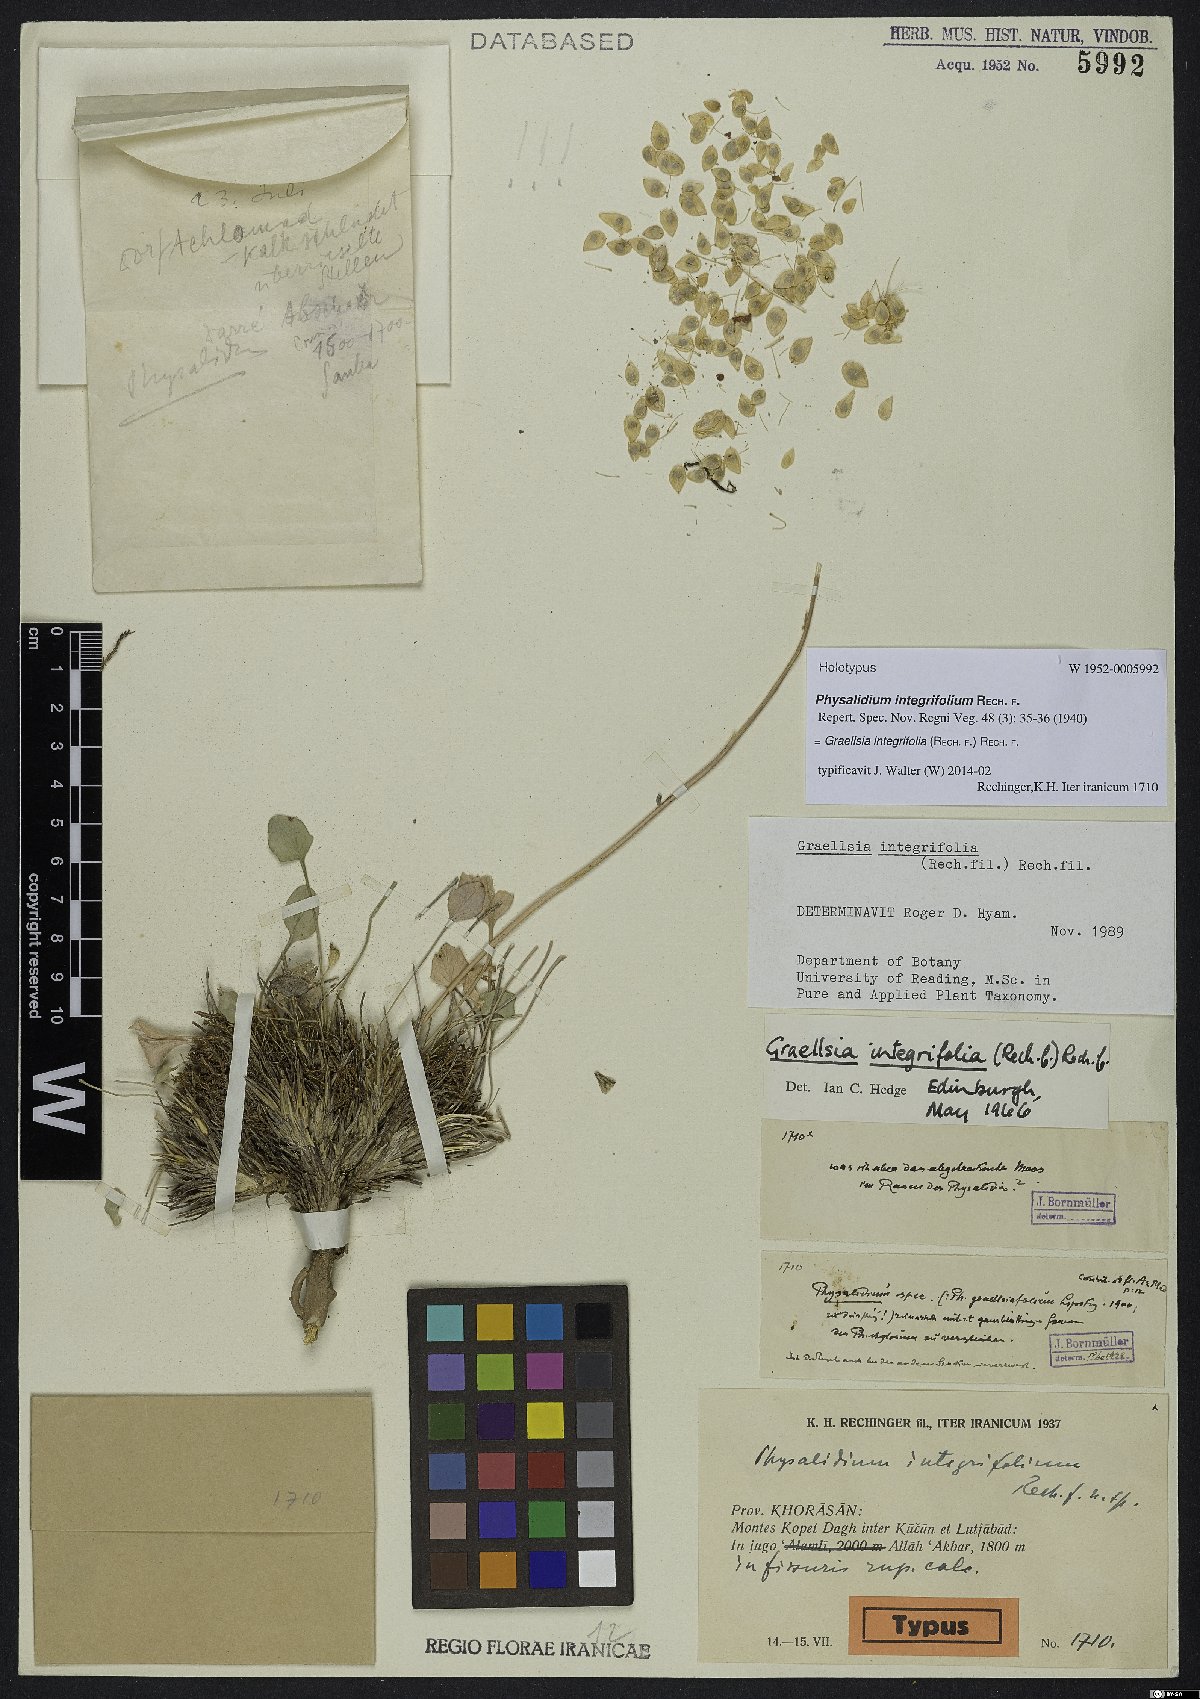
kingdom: Plantae
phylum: Tracheophyta
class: Magnoliopsida
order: Brassicales
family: Brassicaceae
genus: Graellsia
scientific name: Graellsia integrifolia
